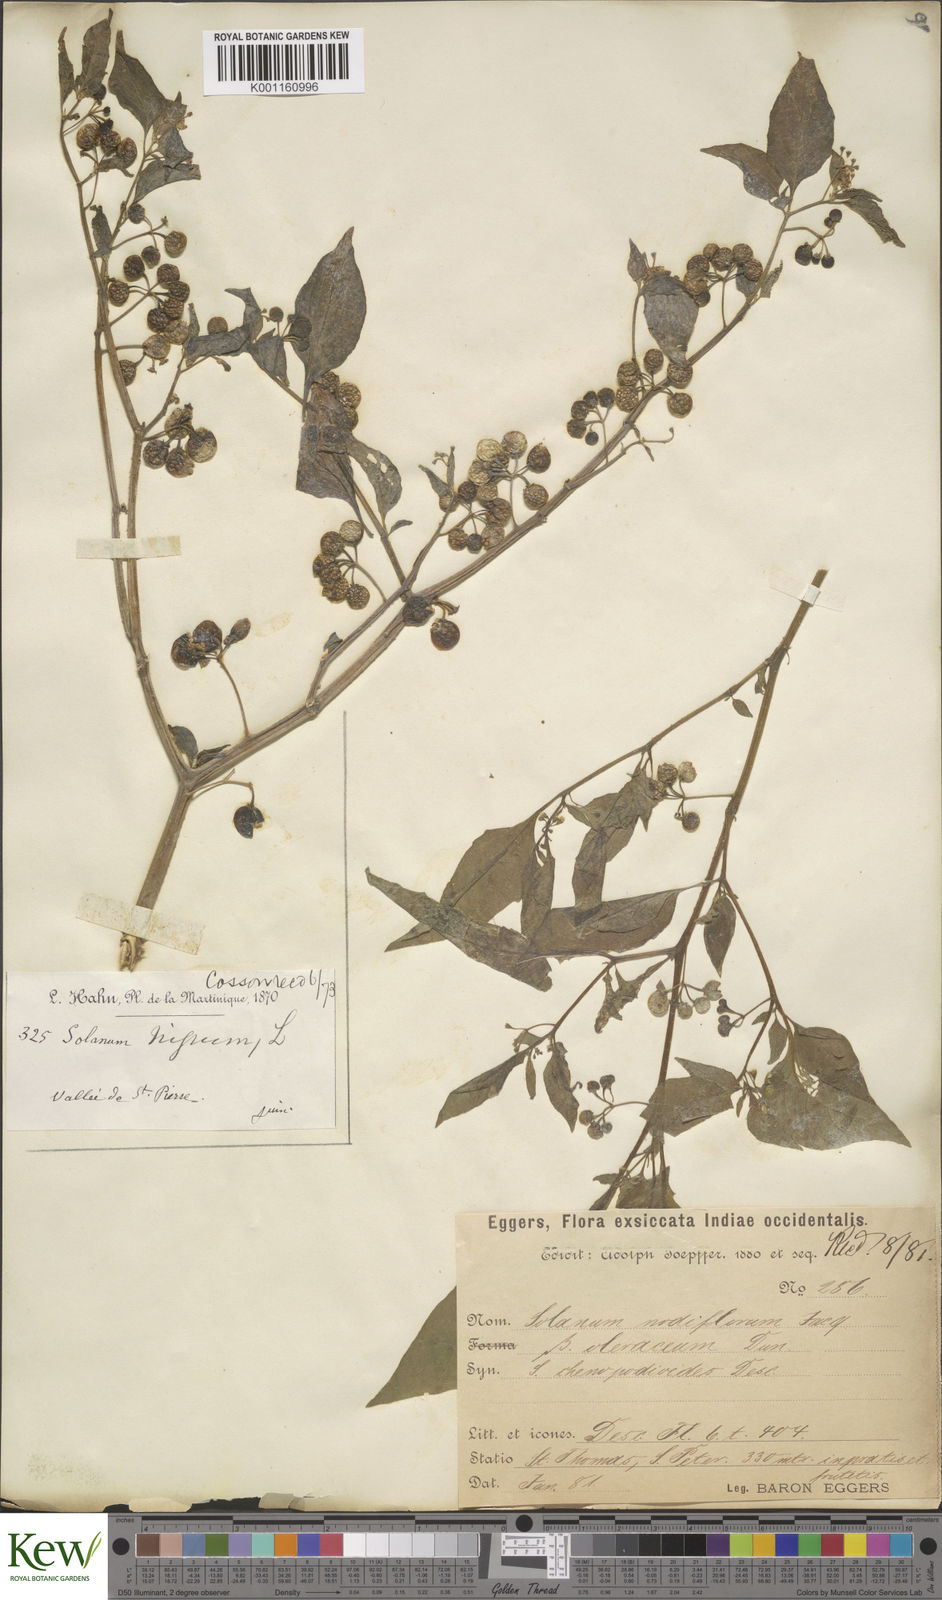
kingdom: Plantae
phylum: Tracheophyta
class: Magnoliopsida
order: Solanales
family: Solanaceae
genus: Solanum
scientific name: Solanum americanum
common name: American black nightshade
